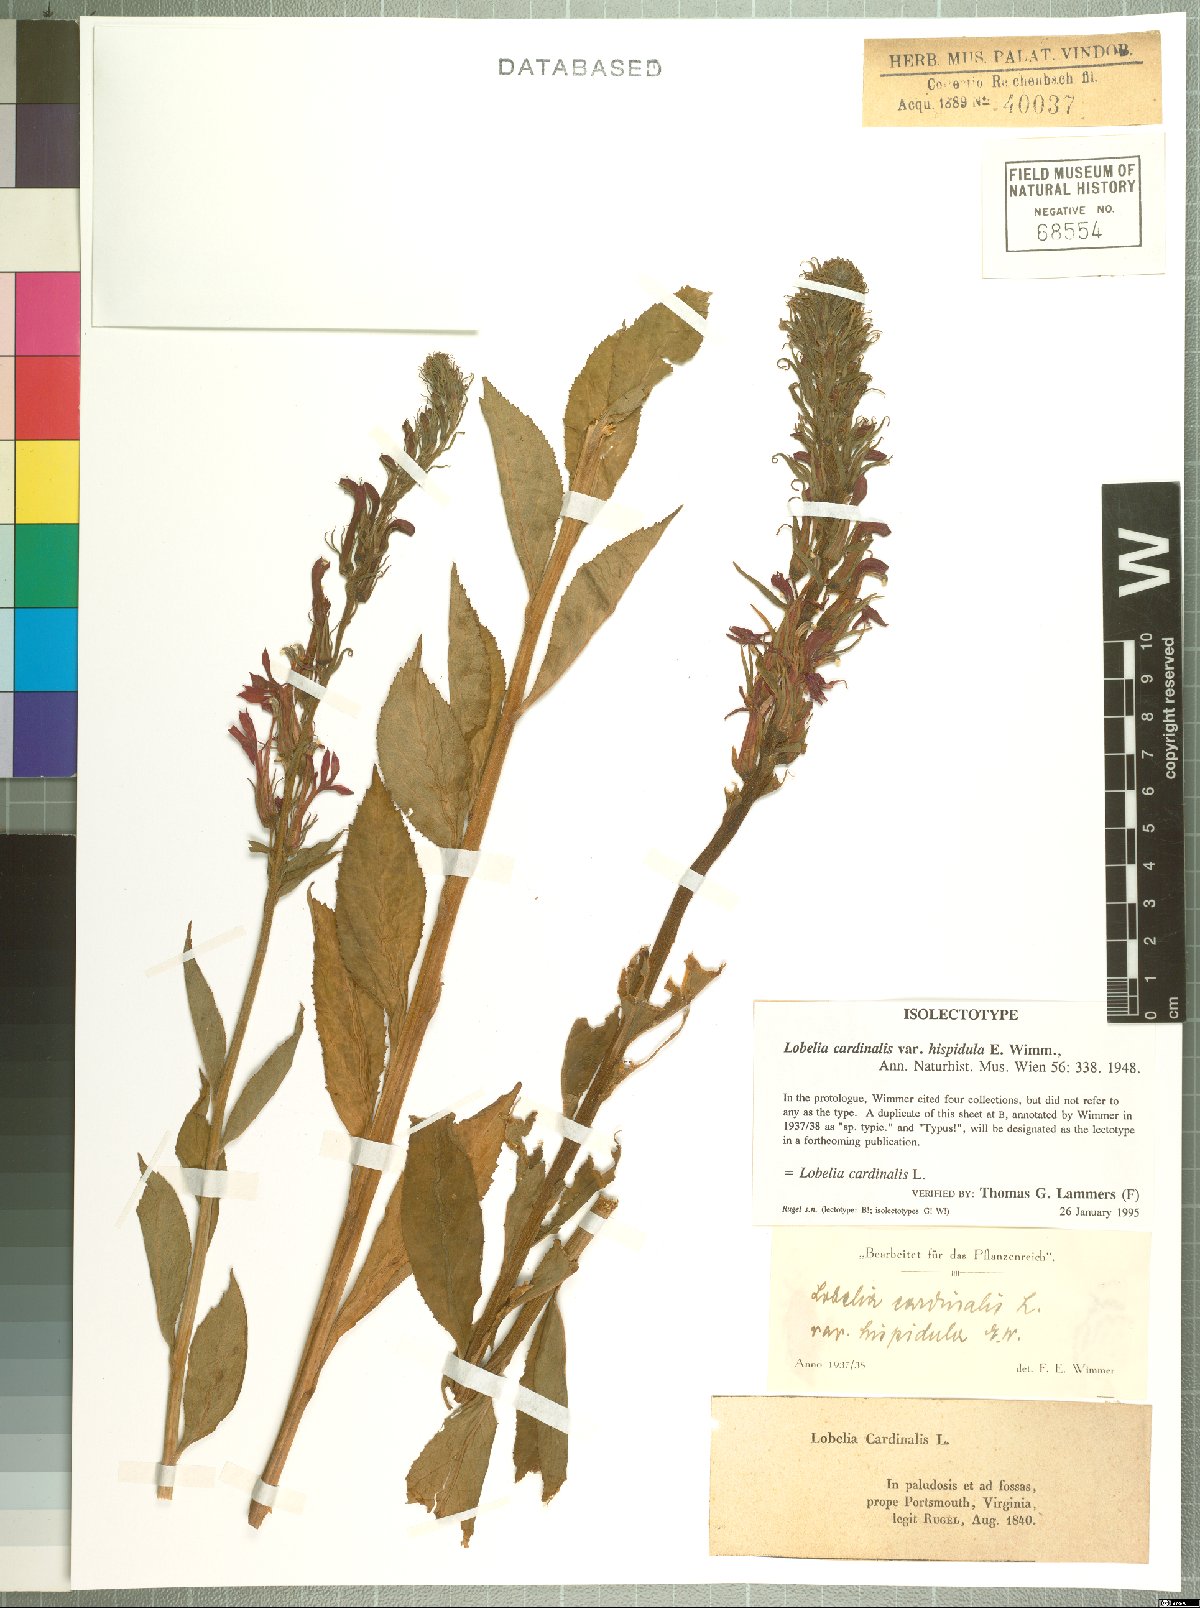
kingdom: Plantae
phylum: Tracheophyta
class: Magnoliopsida
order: Asterales
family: Campanulaceae
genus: Lobelia
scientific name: Lobelia cardinalis
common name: Cardinal flower
